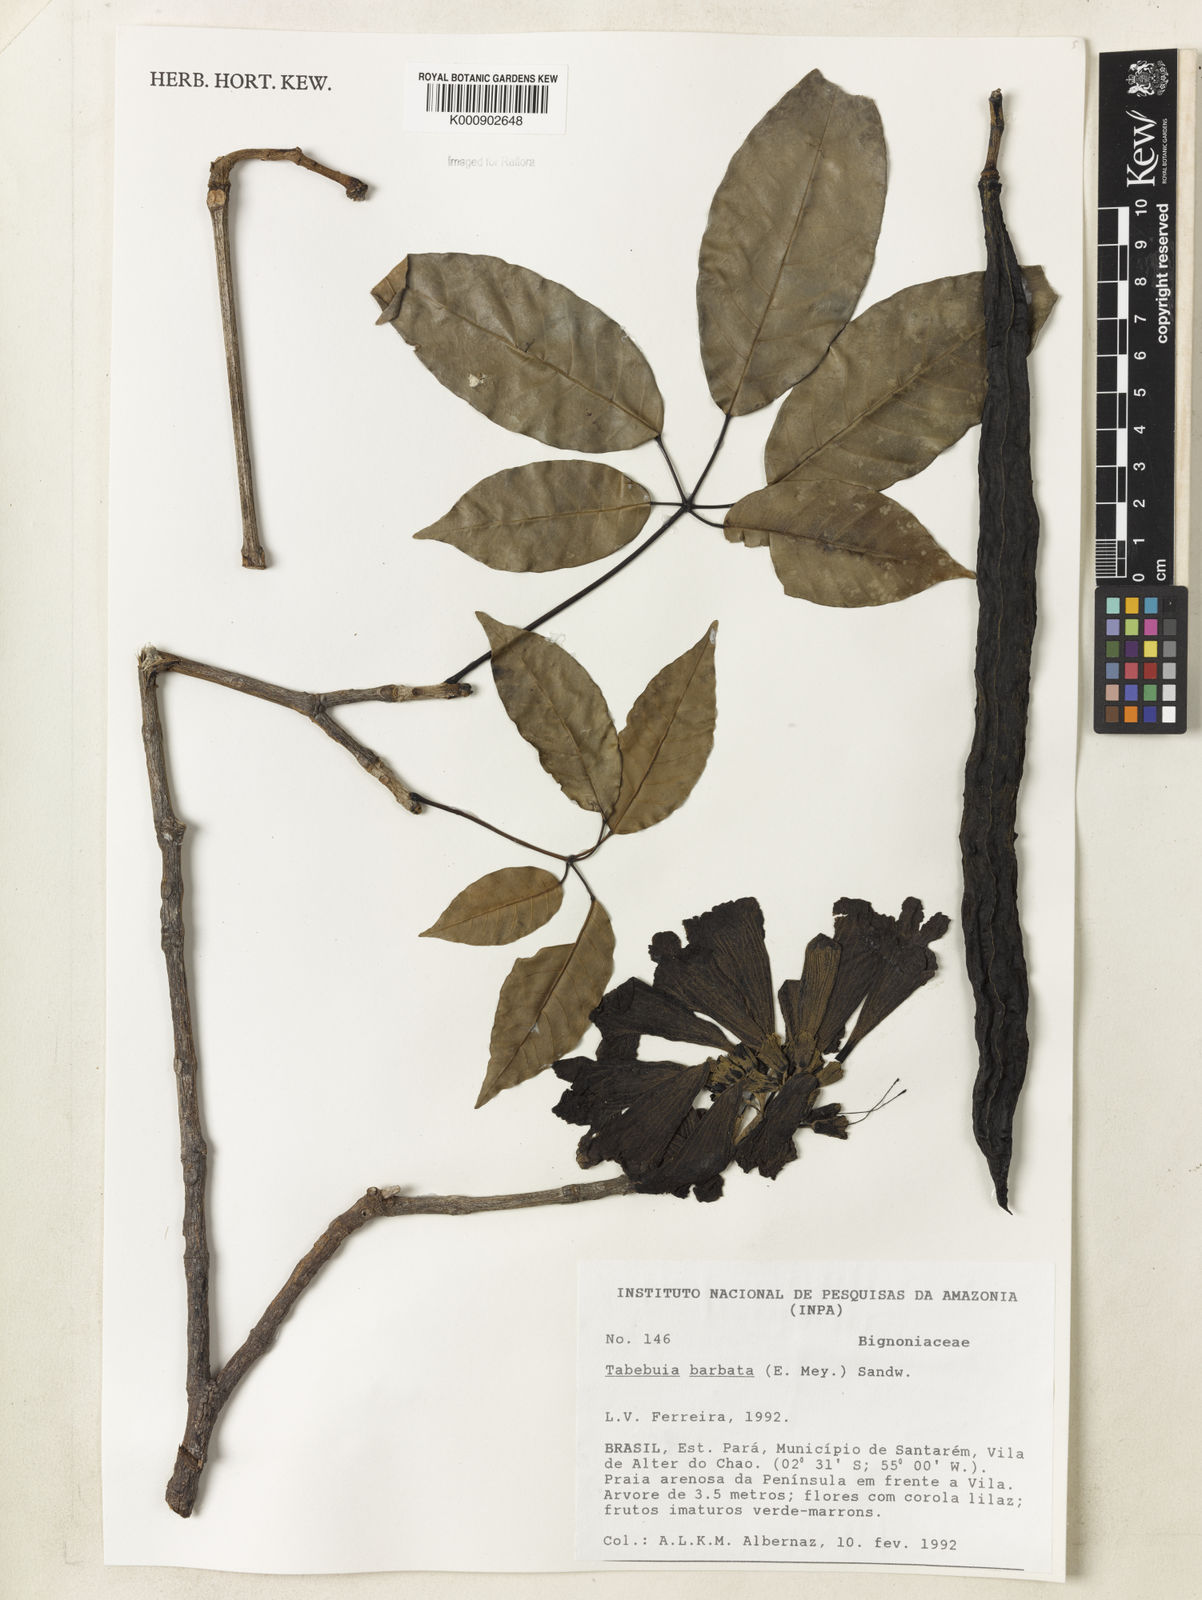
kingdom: Plantae
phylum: Tracheophyta
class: Magnoliopsida
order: Lamiales
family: Bignoniaceae
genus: Handroanthus
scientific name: Handroanthus barbatus
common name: Trumpet trees
